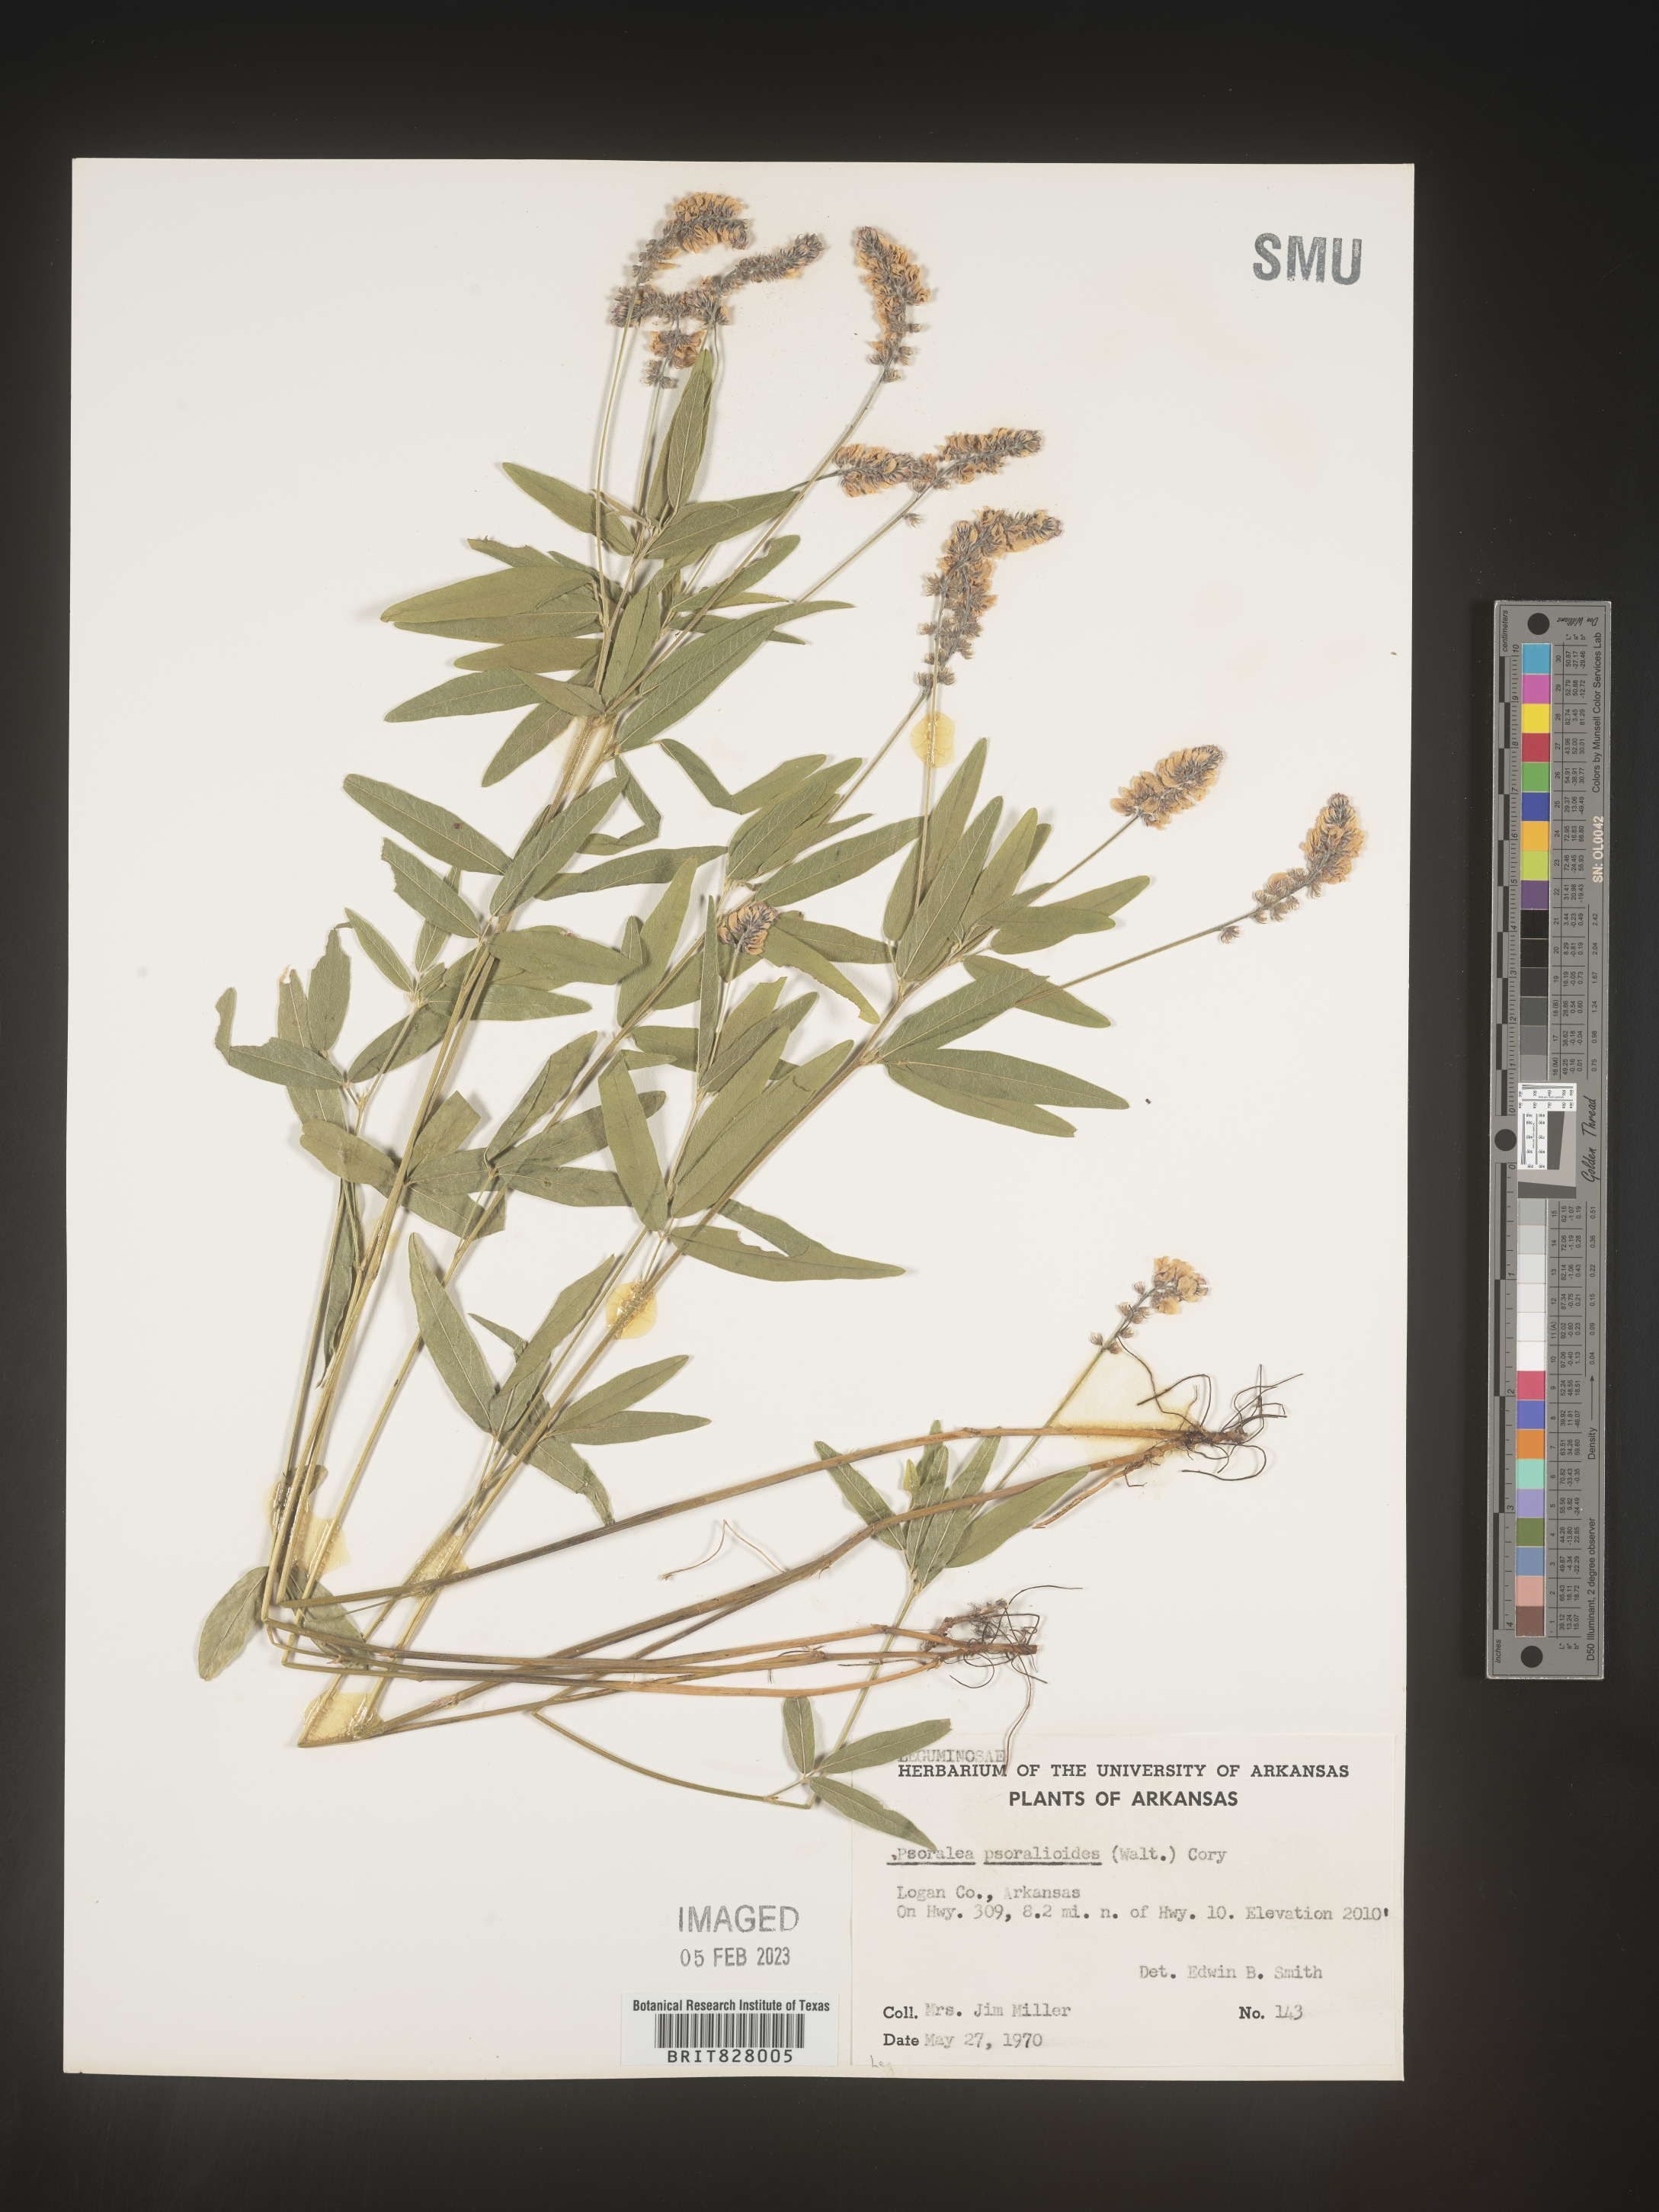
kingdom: Plantae
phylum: Tracheophyta
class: Magnoliopsida
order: Fabales
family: Fabaceae
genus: Orbexilum
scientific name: Orbexilum pedunculatum
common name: Sampson's snakeroot
